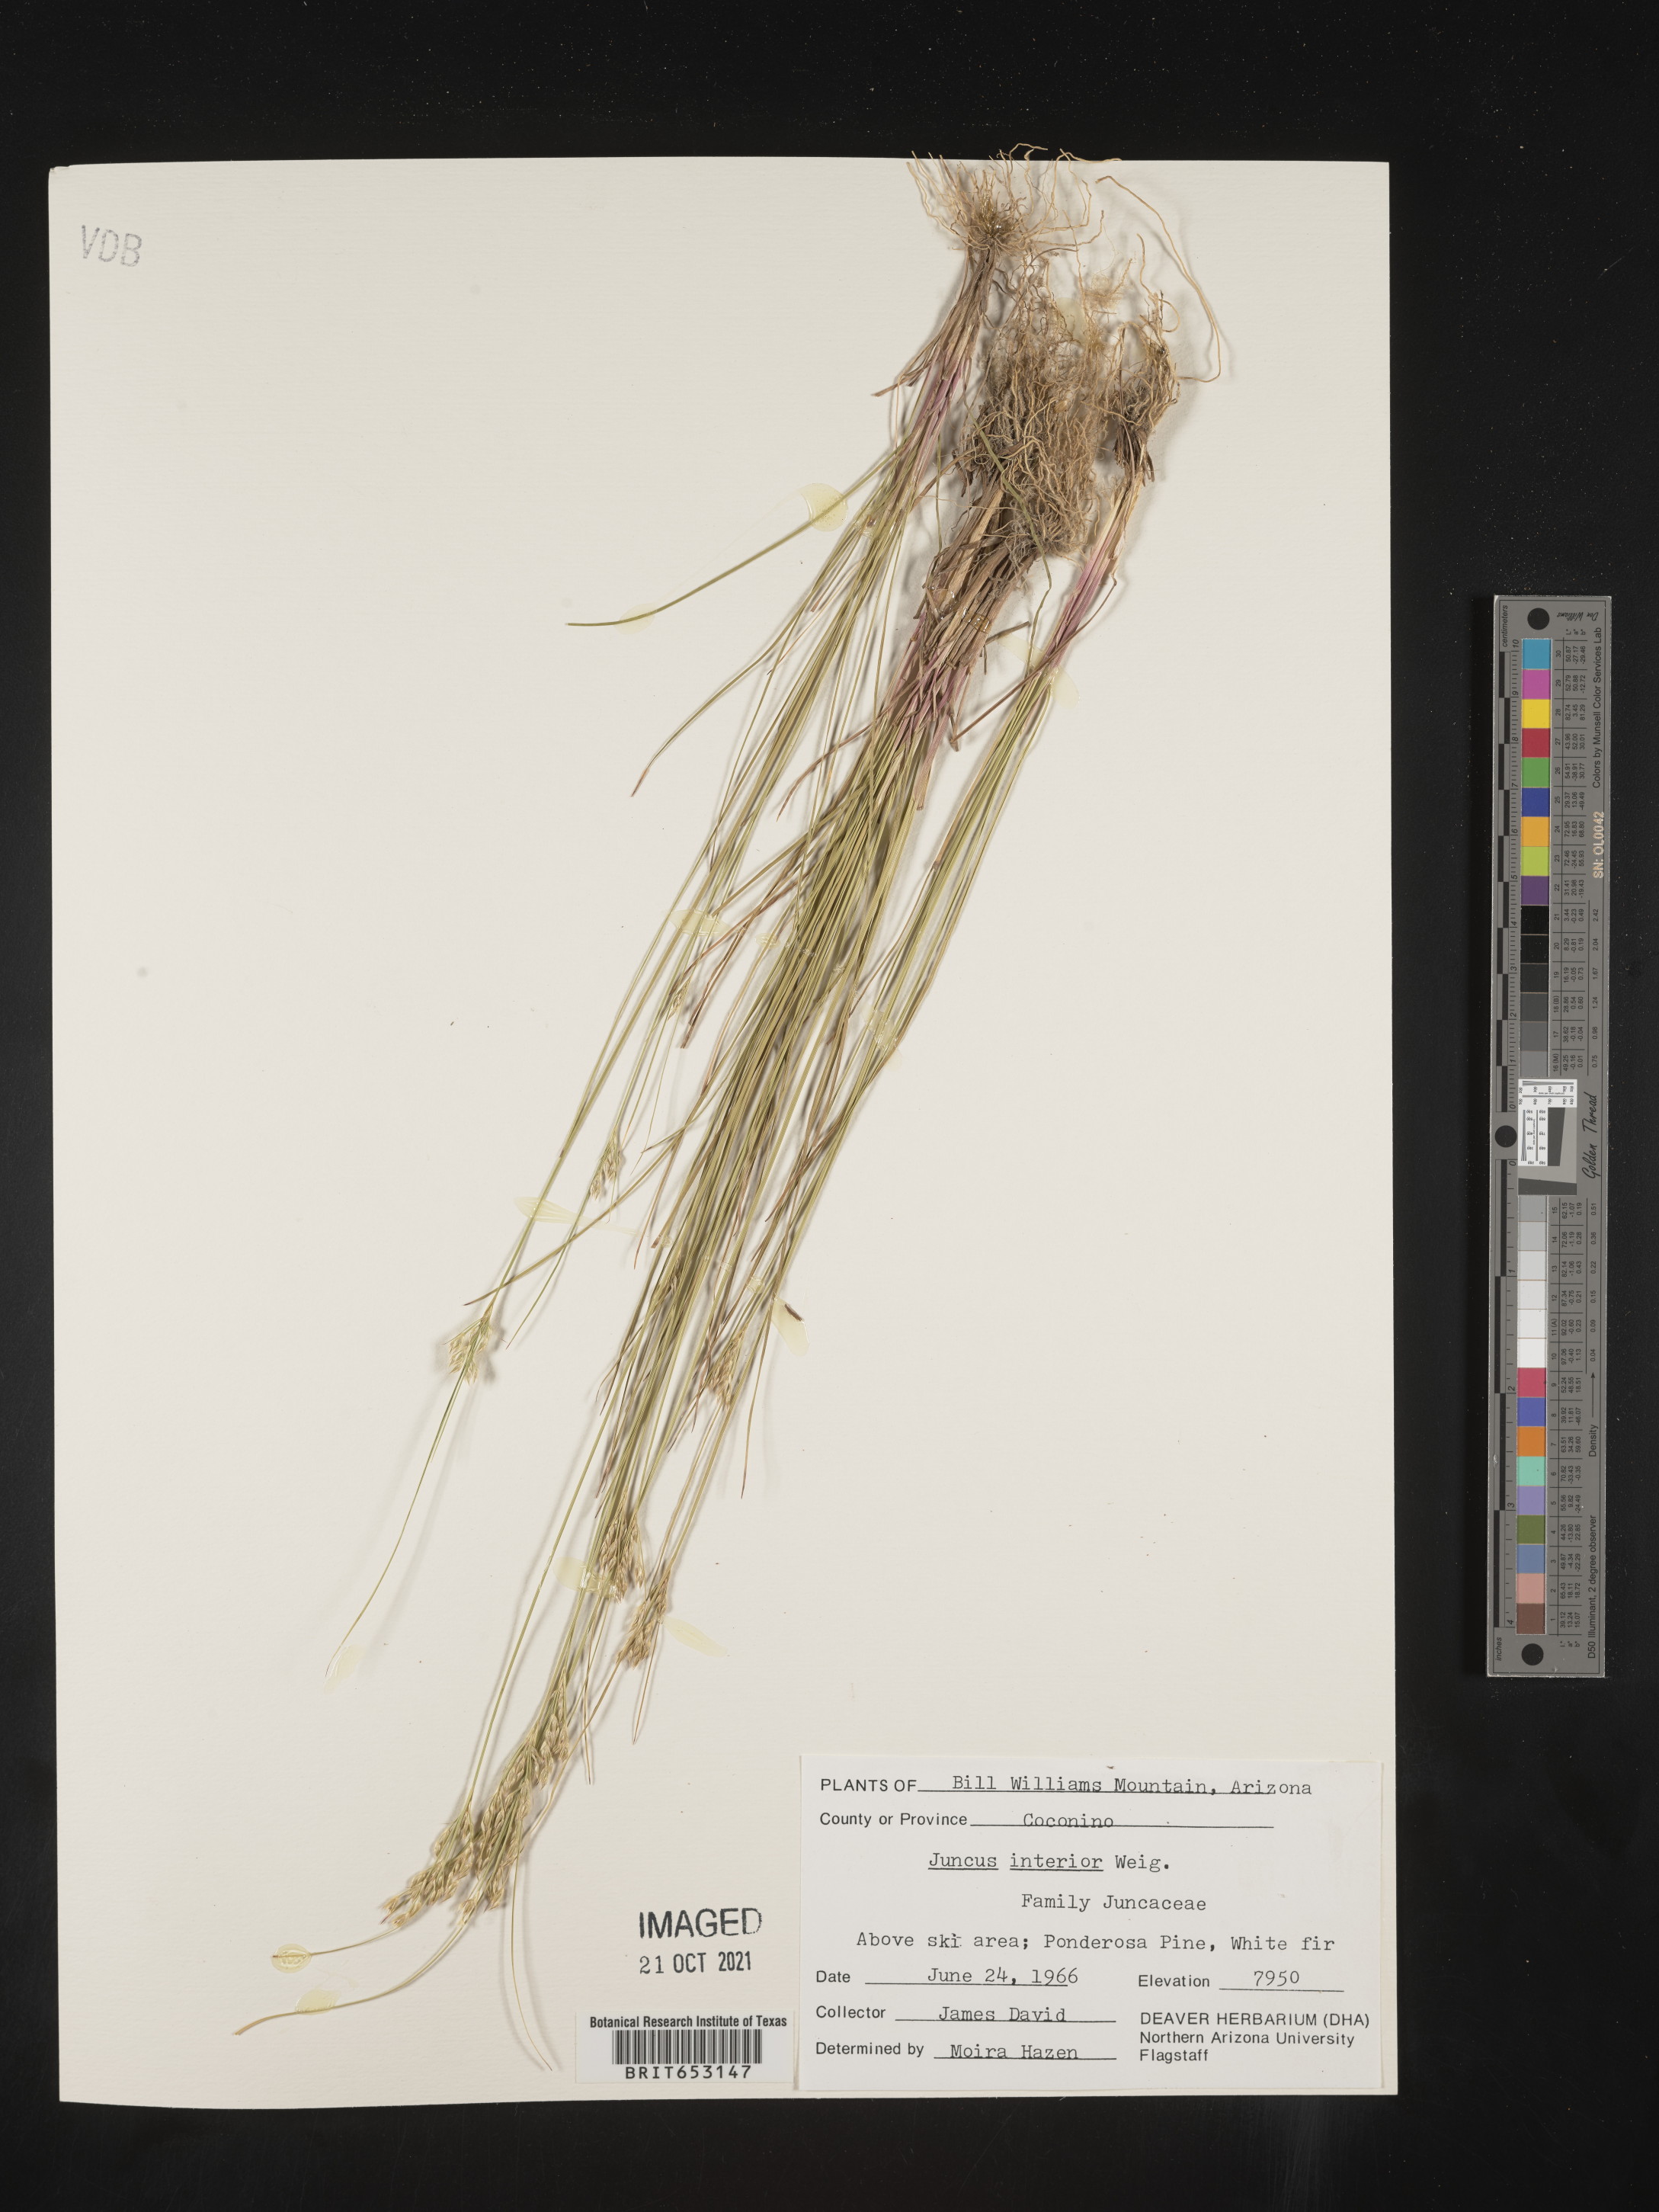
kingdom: Plantae
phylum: Tracheophyta
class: Liliopsida
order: Poales
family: Juncaceae
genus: Juncus
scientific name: Juncus interior
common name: Interior rush
